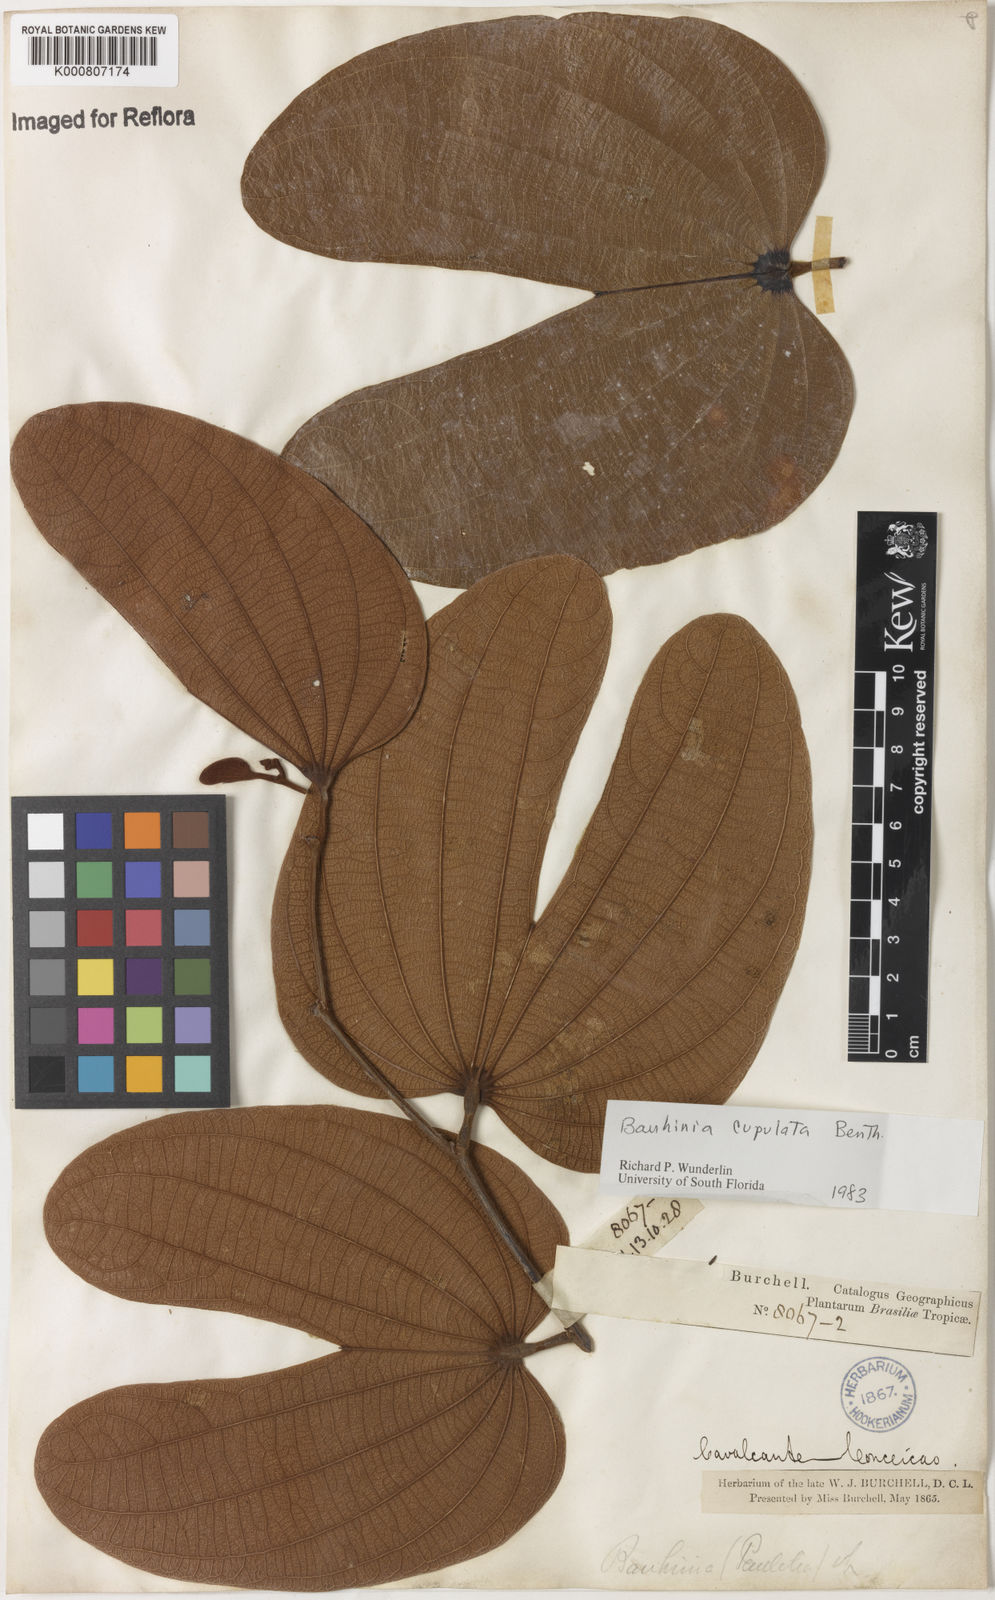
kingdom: Plantae
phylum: Tracheophyta
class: Magnoliopsida
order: Fabales
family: Fabaceae
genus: Bauhinia
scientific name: Bauhinia cupulata
